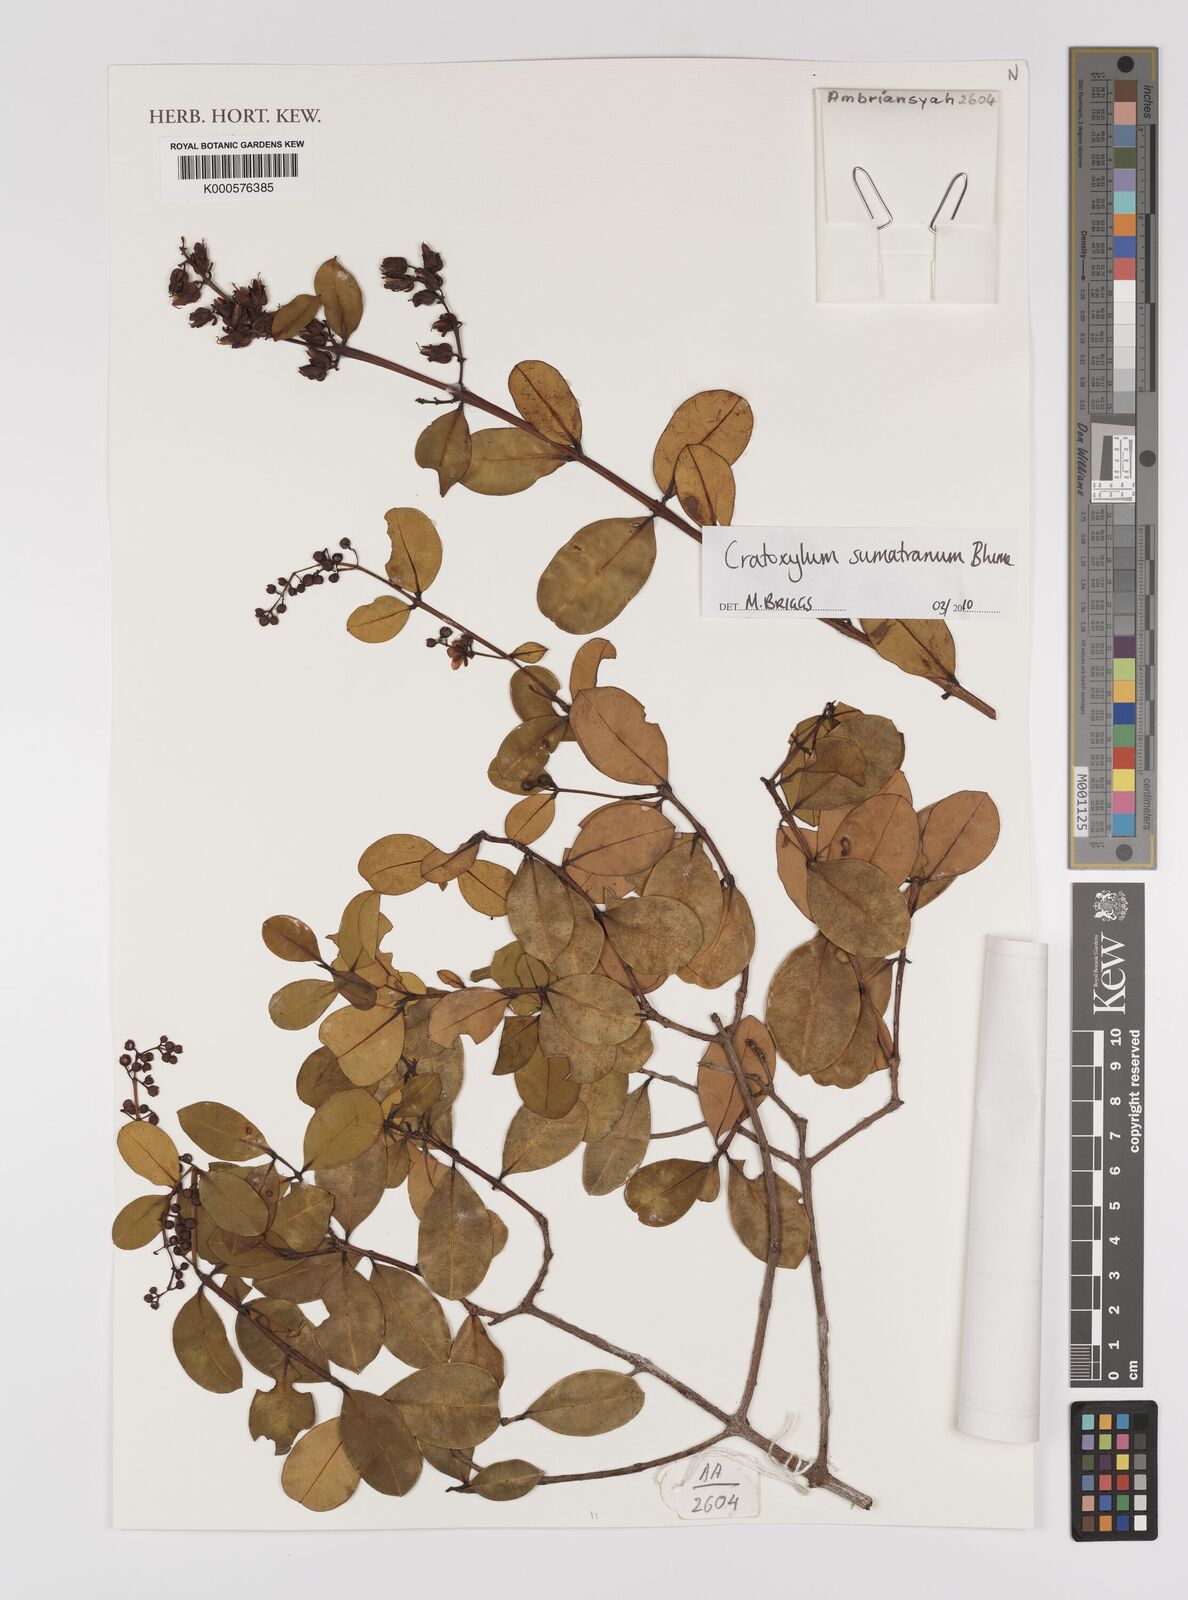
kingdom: Plantae
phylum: Tracheophyta
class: Magnoliopsida
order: Malpighiales
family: Hypericaceae
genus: Cratoxylum
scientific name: Cratoxylum sumatranum
